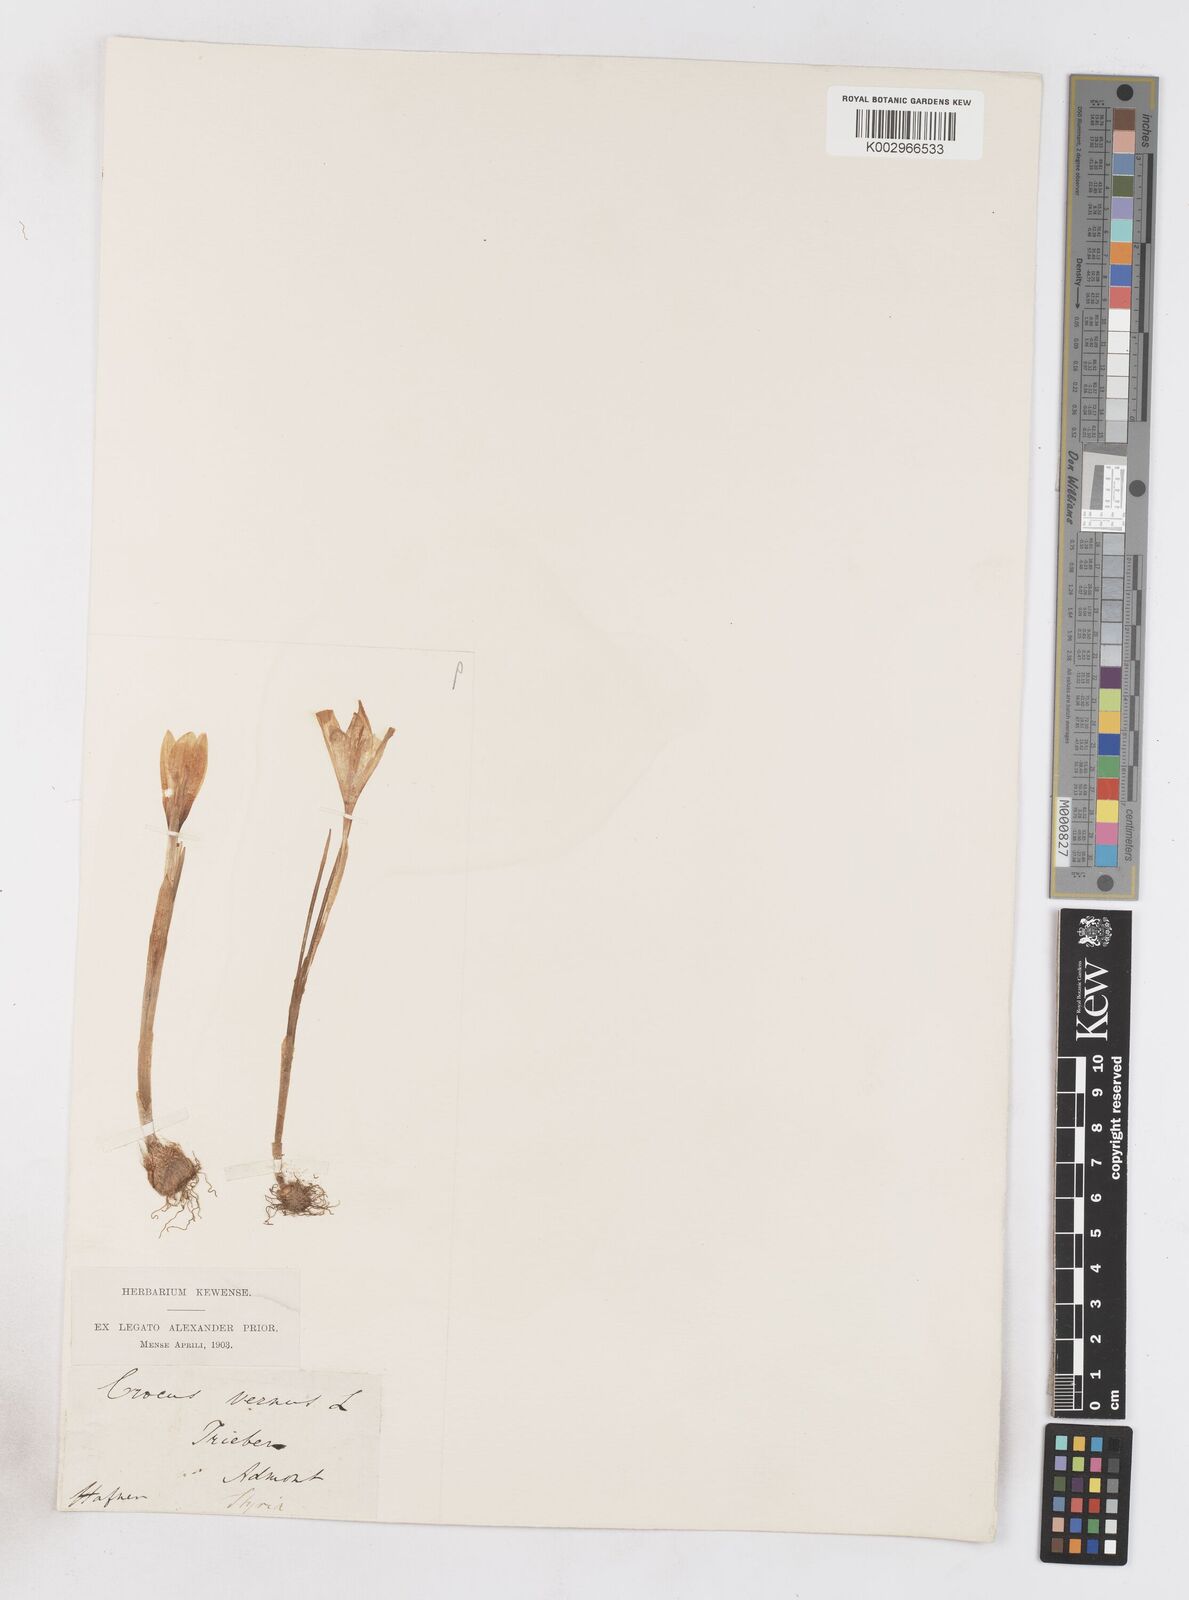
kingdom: Plantae
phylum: Tracheophyta
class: Liliopsida
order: Asparagales
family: Iridaceae
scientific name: Iridaceae
